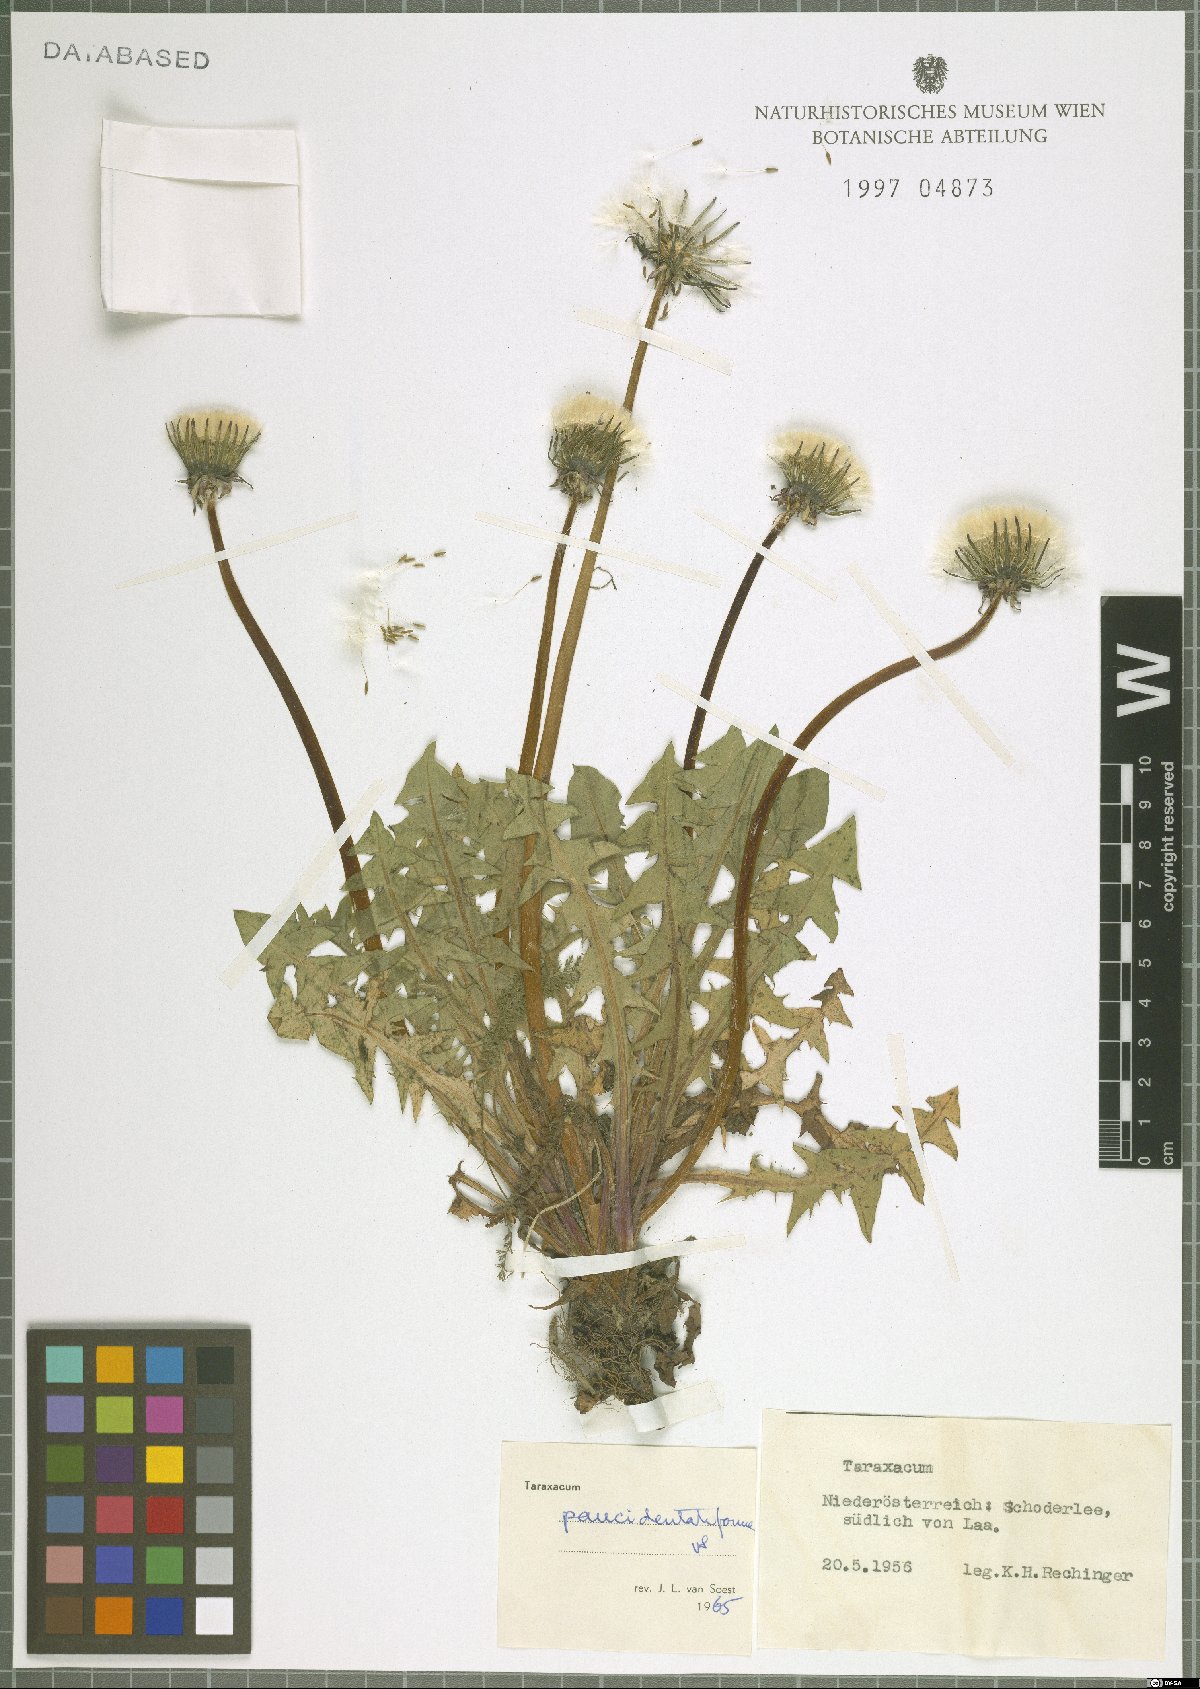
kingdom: Plantae
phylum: Tracheophyta
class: Magnoliopsida
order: Asterales
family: Asteraceae
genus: Taraxacum
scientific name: Taraxacum paucidentatiforme
